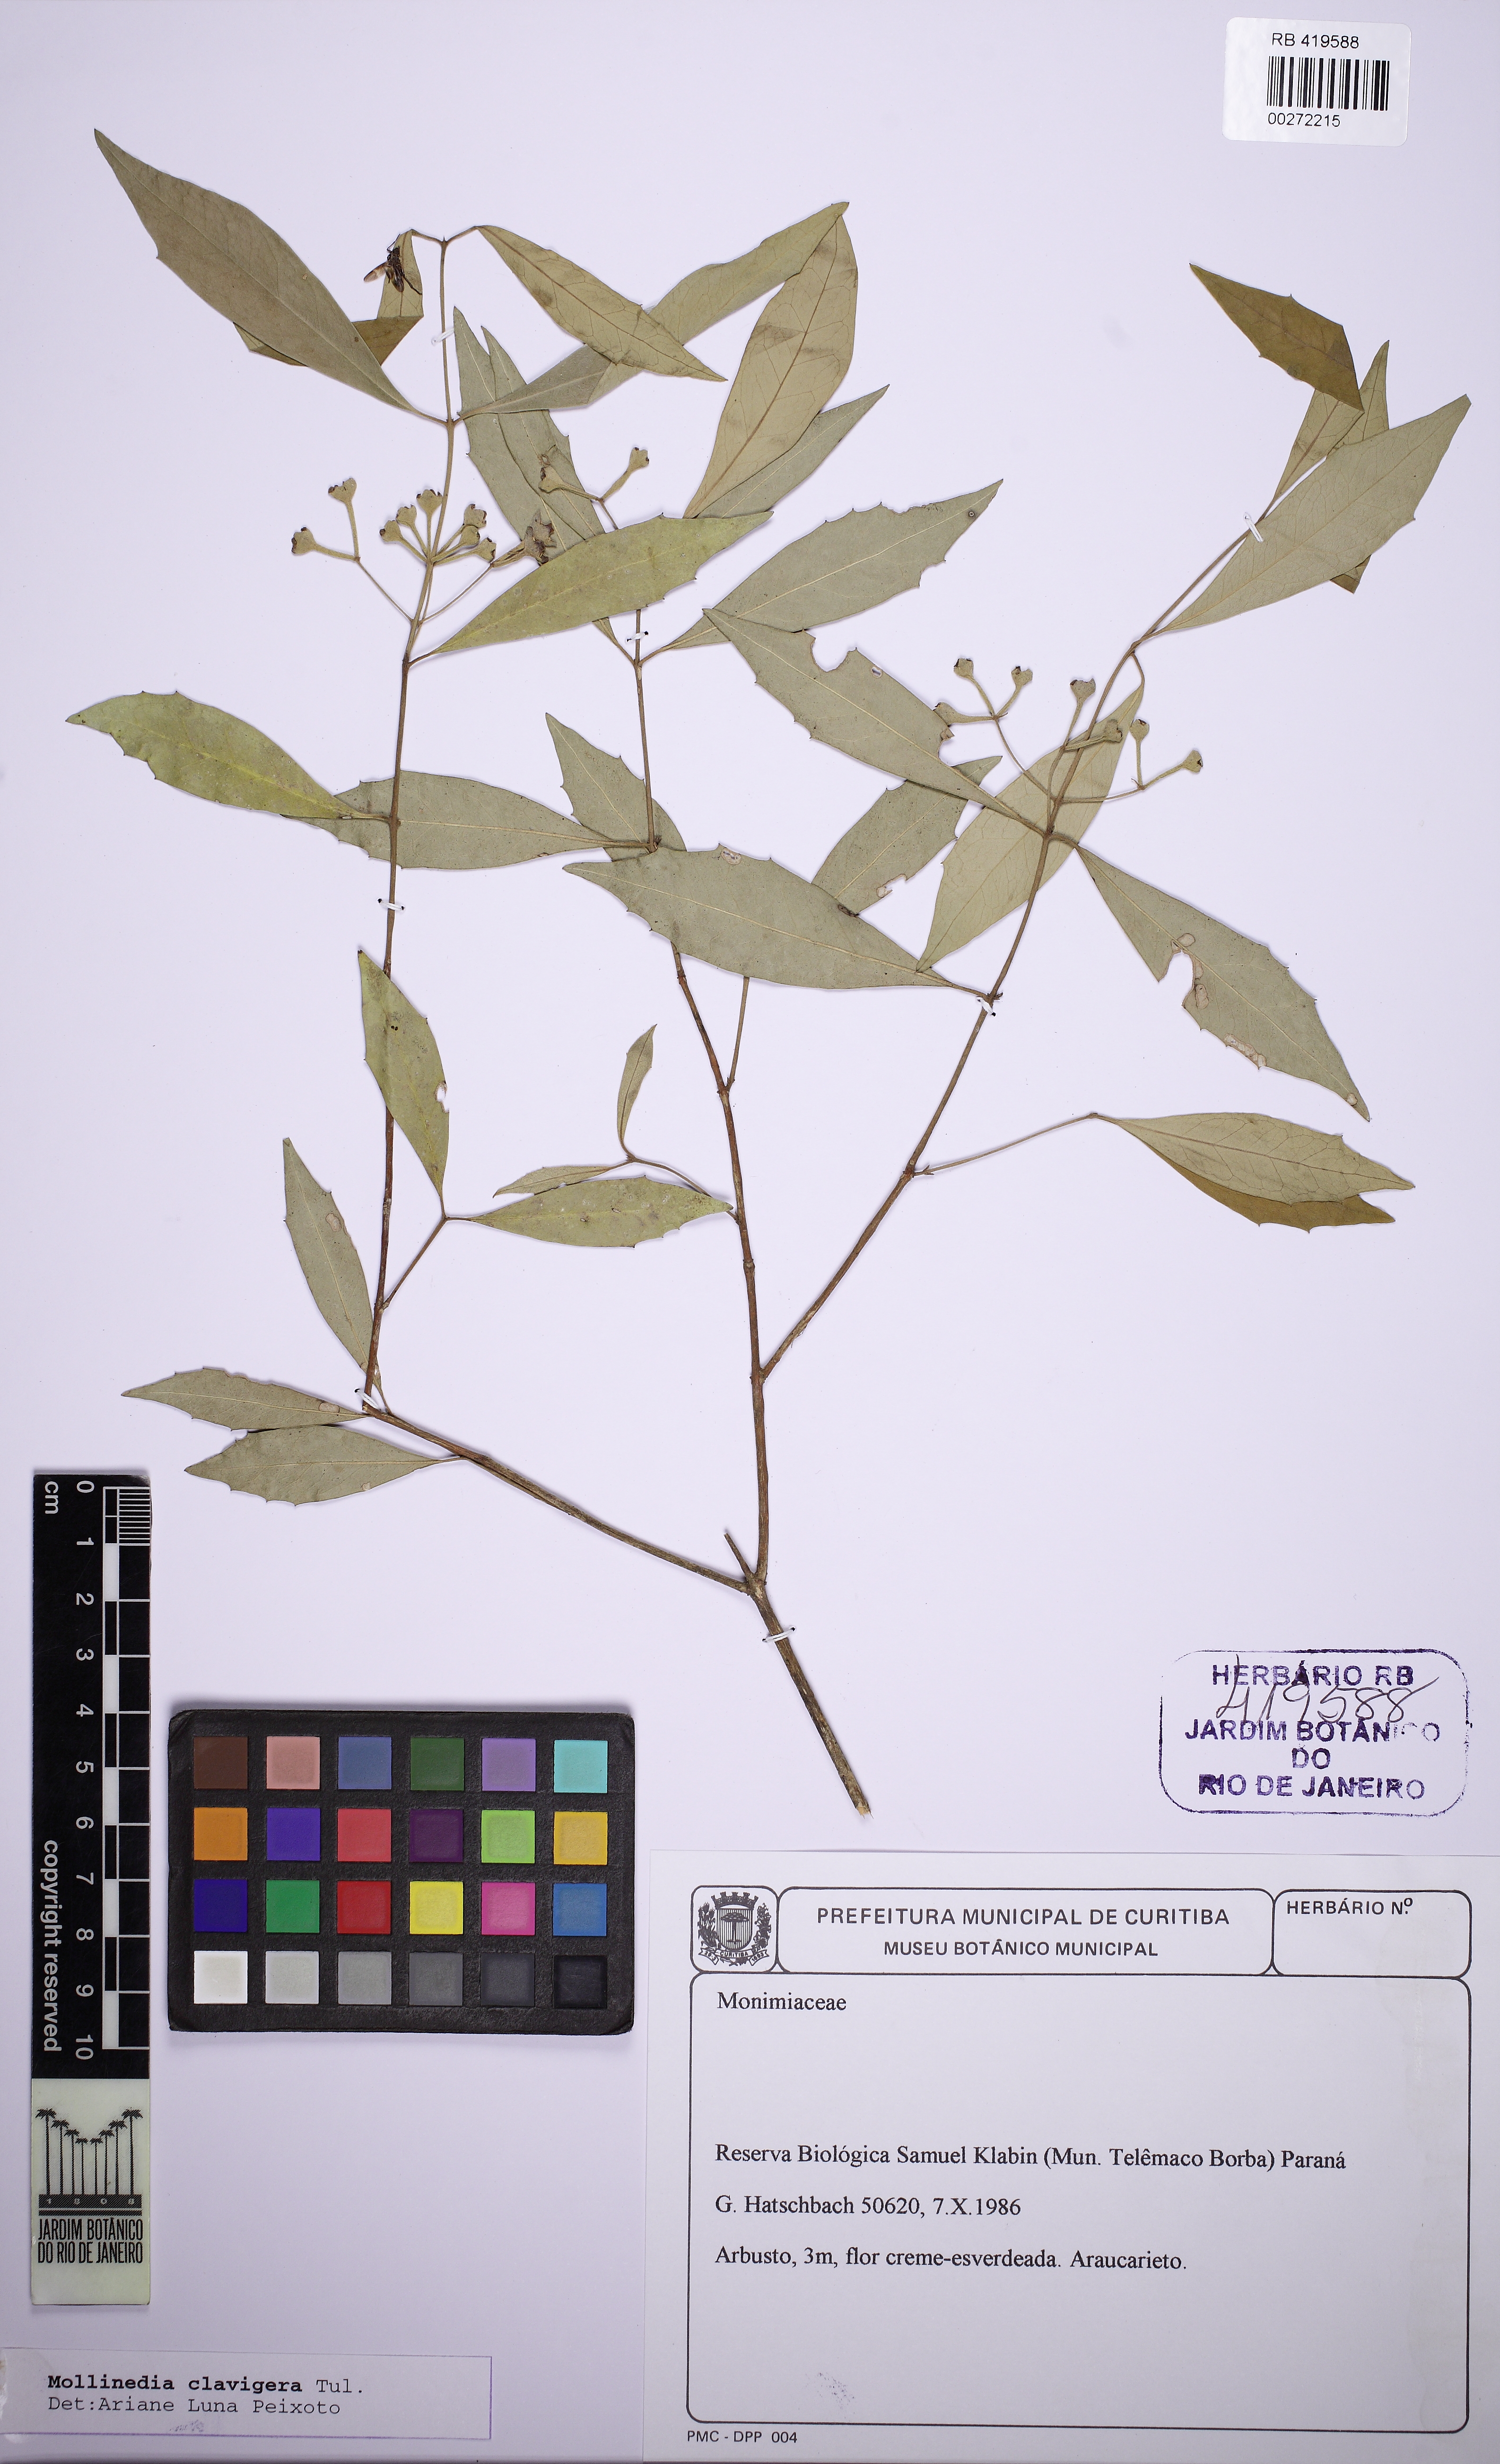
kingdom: Plantae
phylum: Tracheophyta
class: Magnoliopsida
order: Laurales
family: Monimiaceae
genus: Mollinedia
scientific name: Mollinedia clavigera
